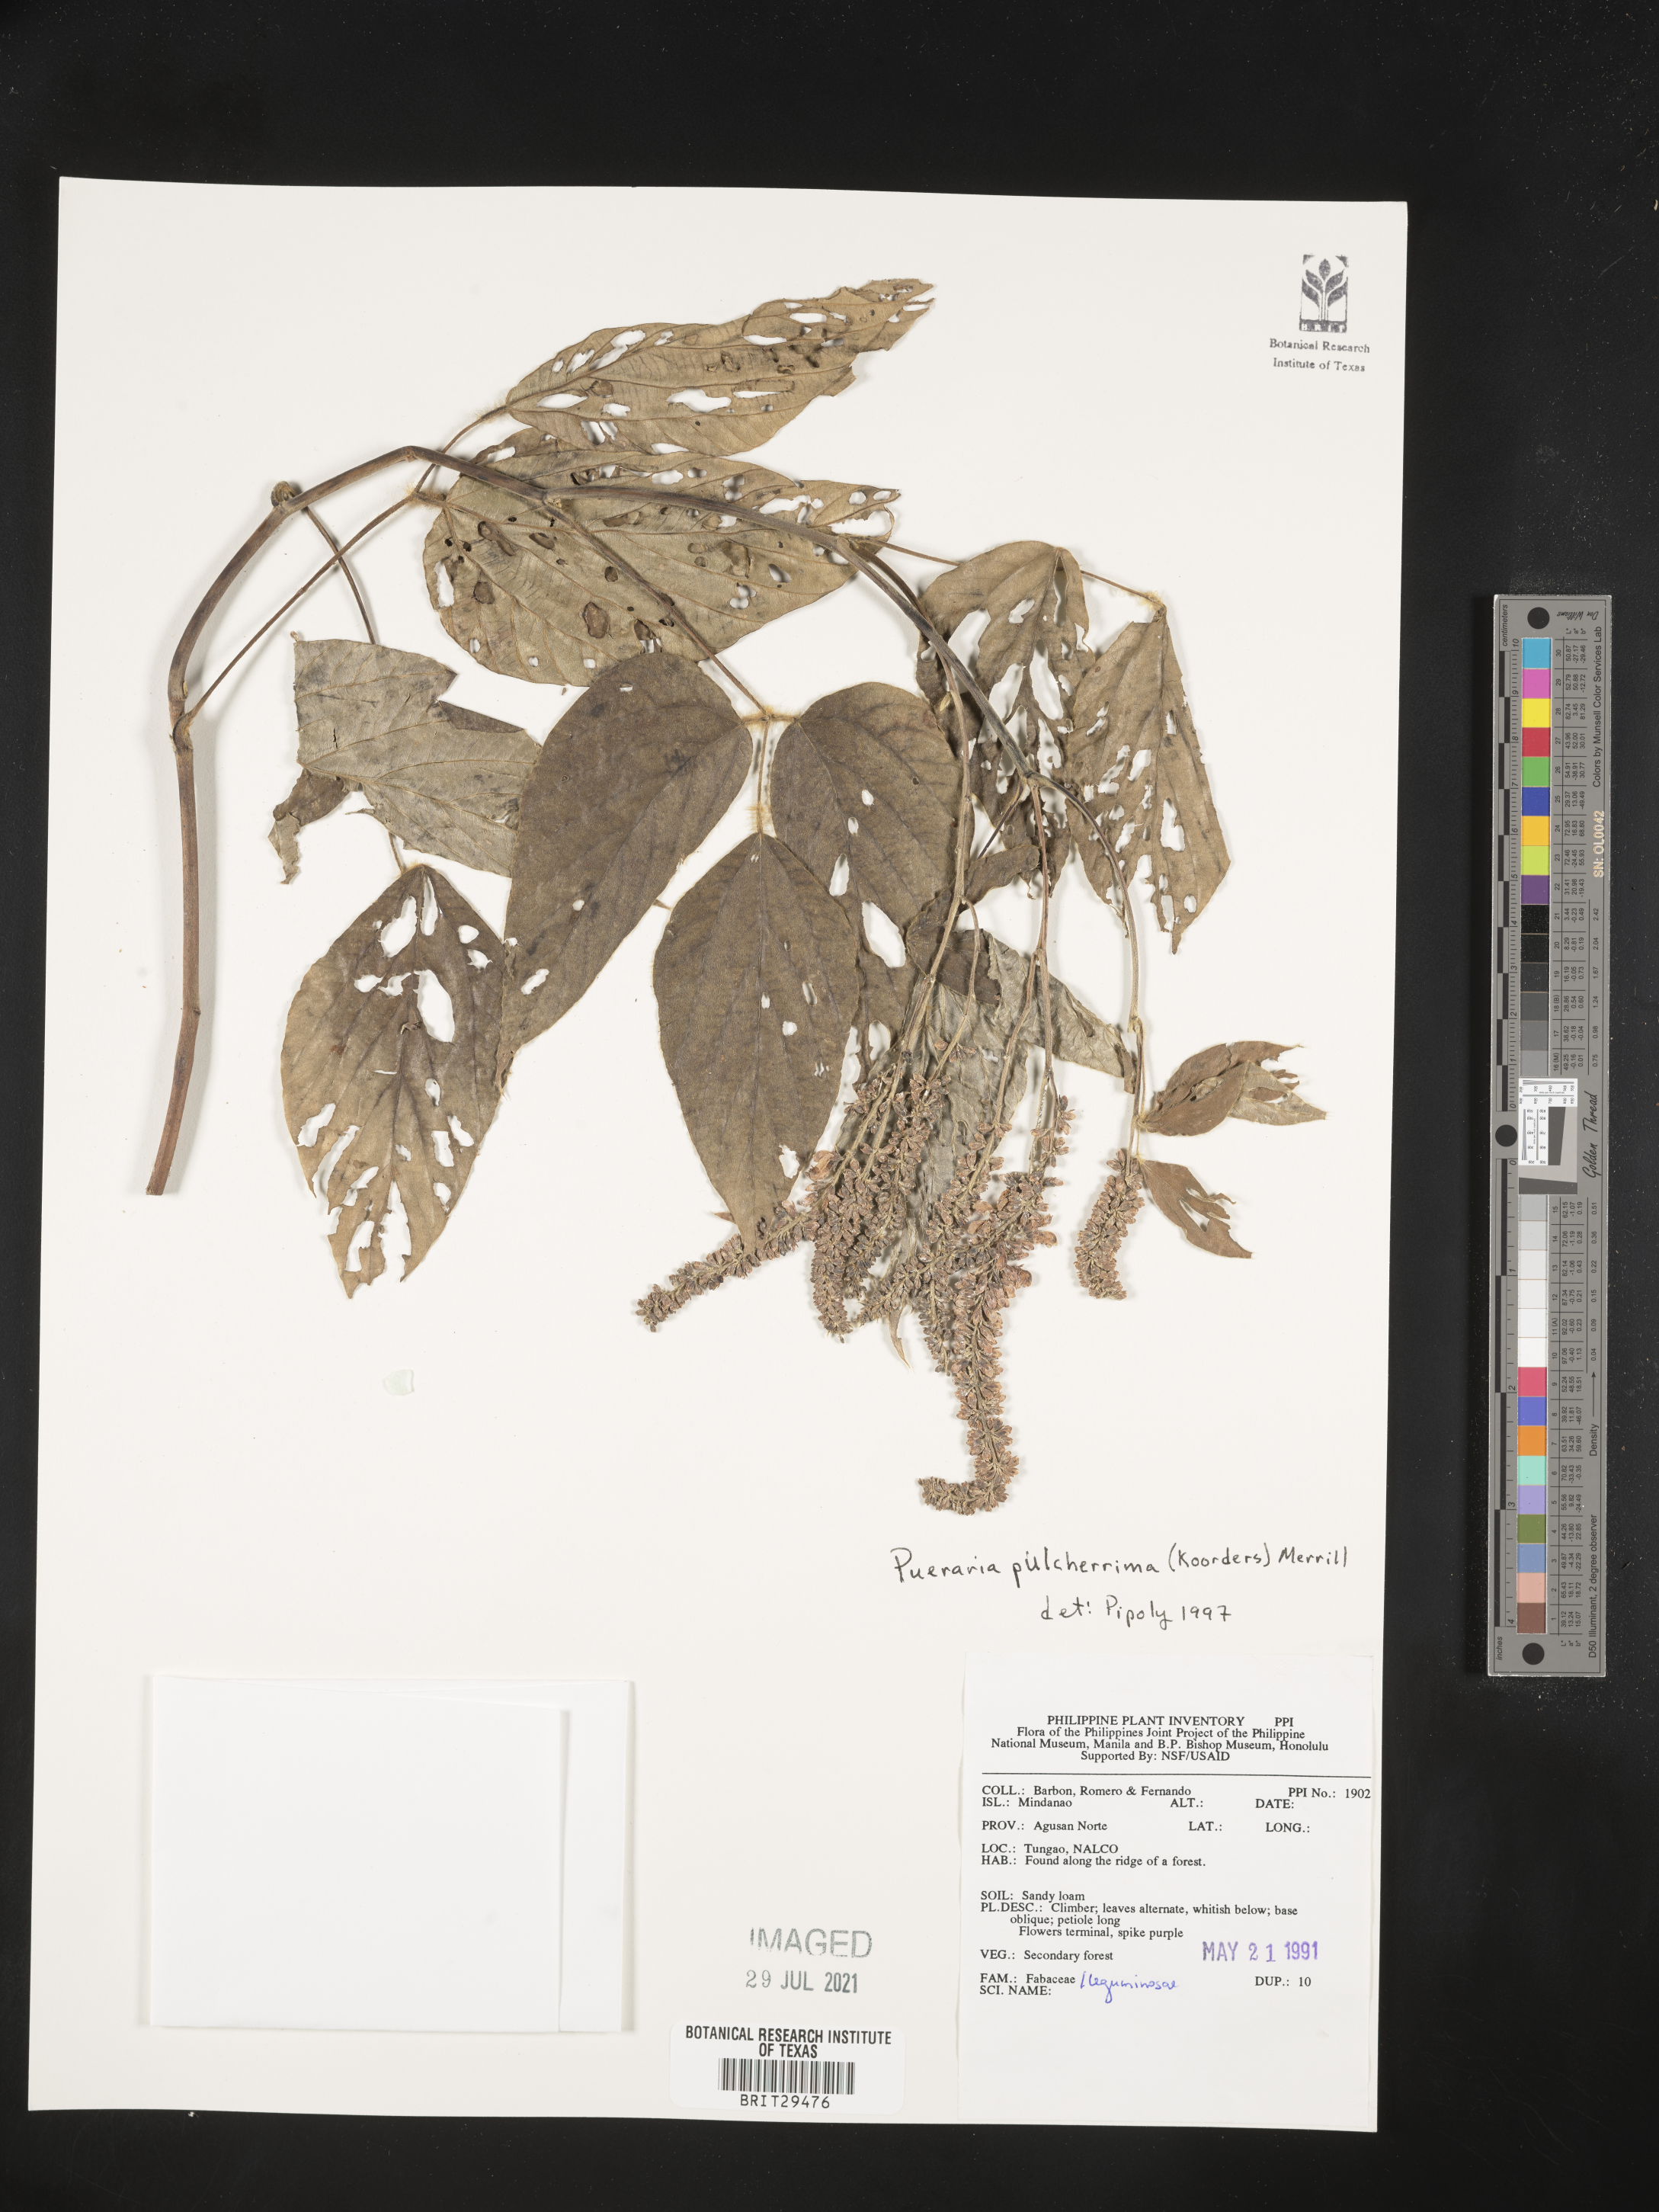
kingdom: Plantae
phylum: Tracheophyta
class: Magnoliopsida
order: Fabales
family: Fabaceae
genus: Pueraria
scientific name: Pueraria pulcherrima
